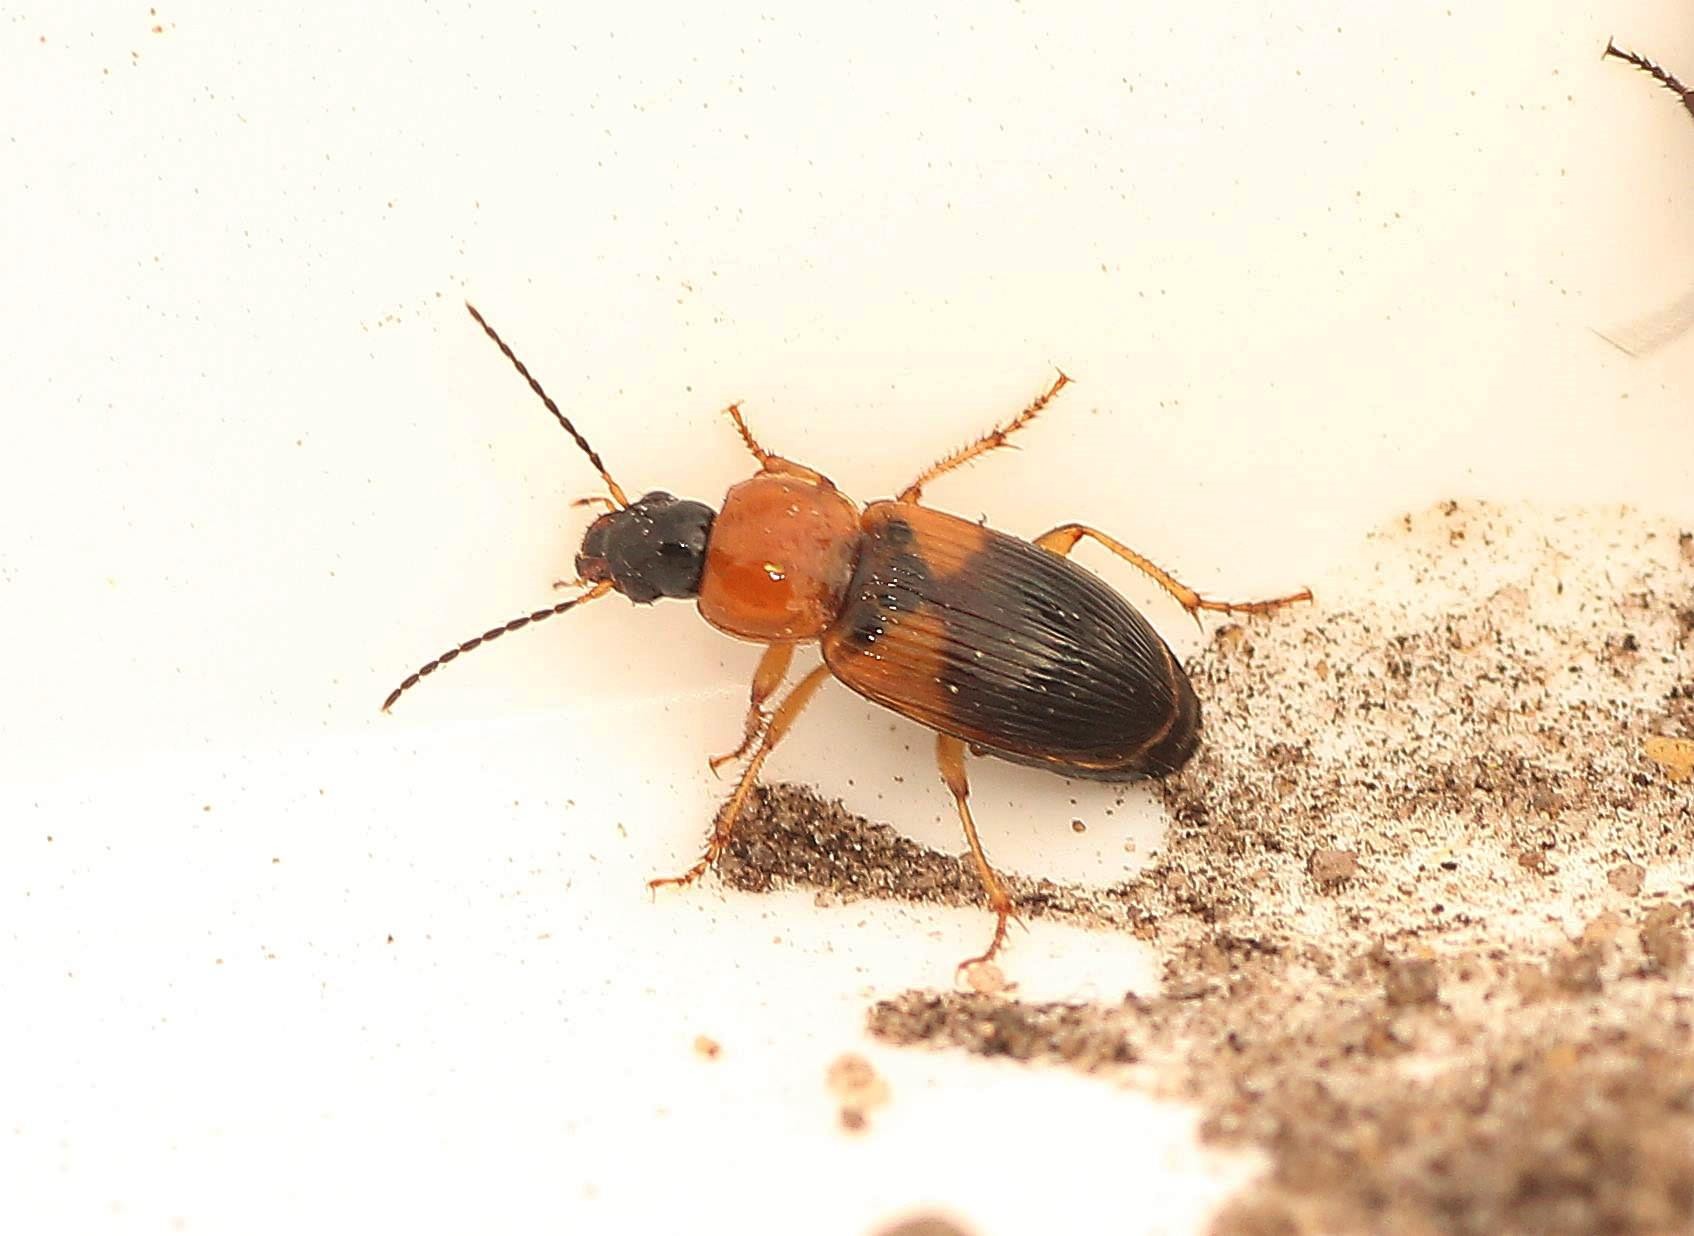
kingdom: Animalia
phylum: Arthropoda
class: Insecta
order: Coleoptera
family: Carabidae
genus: Stenolophus
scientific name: Stenolophus teutonus
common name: Spraglet damløber
